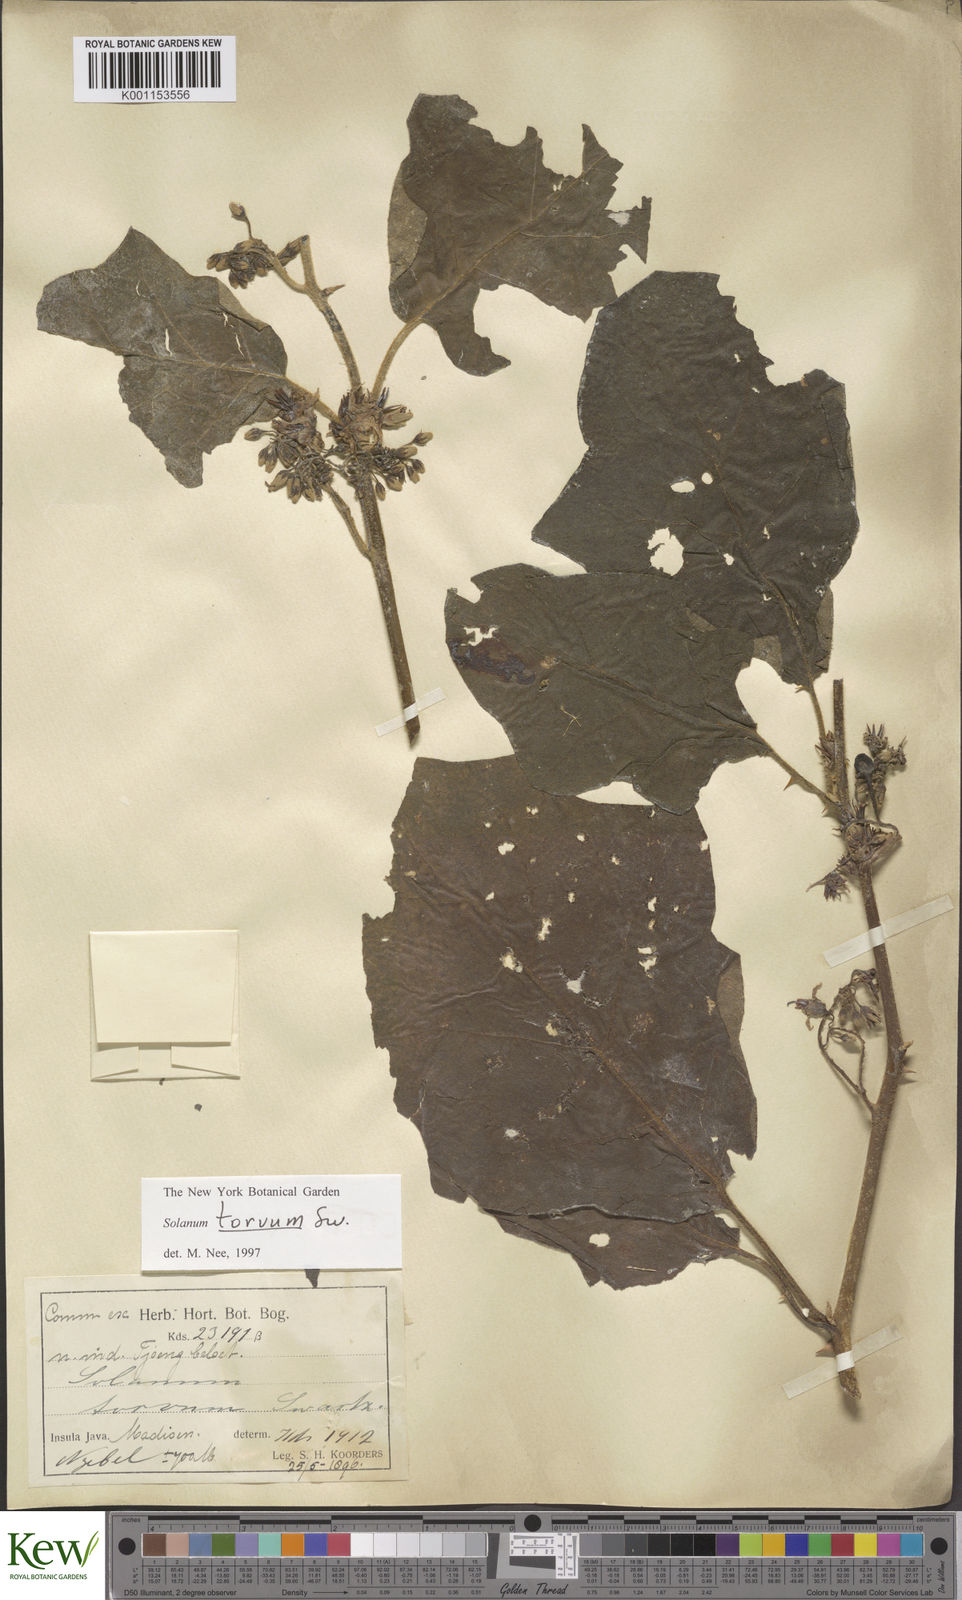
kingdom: Plantae
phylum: Tracheophyta
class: Magnoliopsida
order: Solanales
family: Solanaceae
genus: Solanum
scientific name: Solanum torvum
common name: Turkey berry
